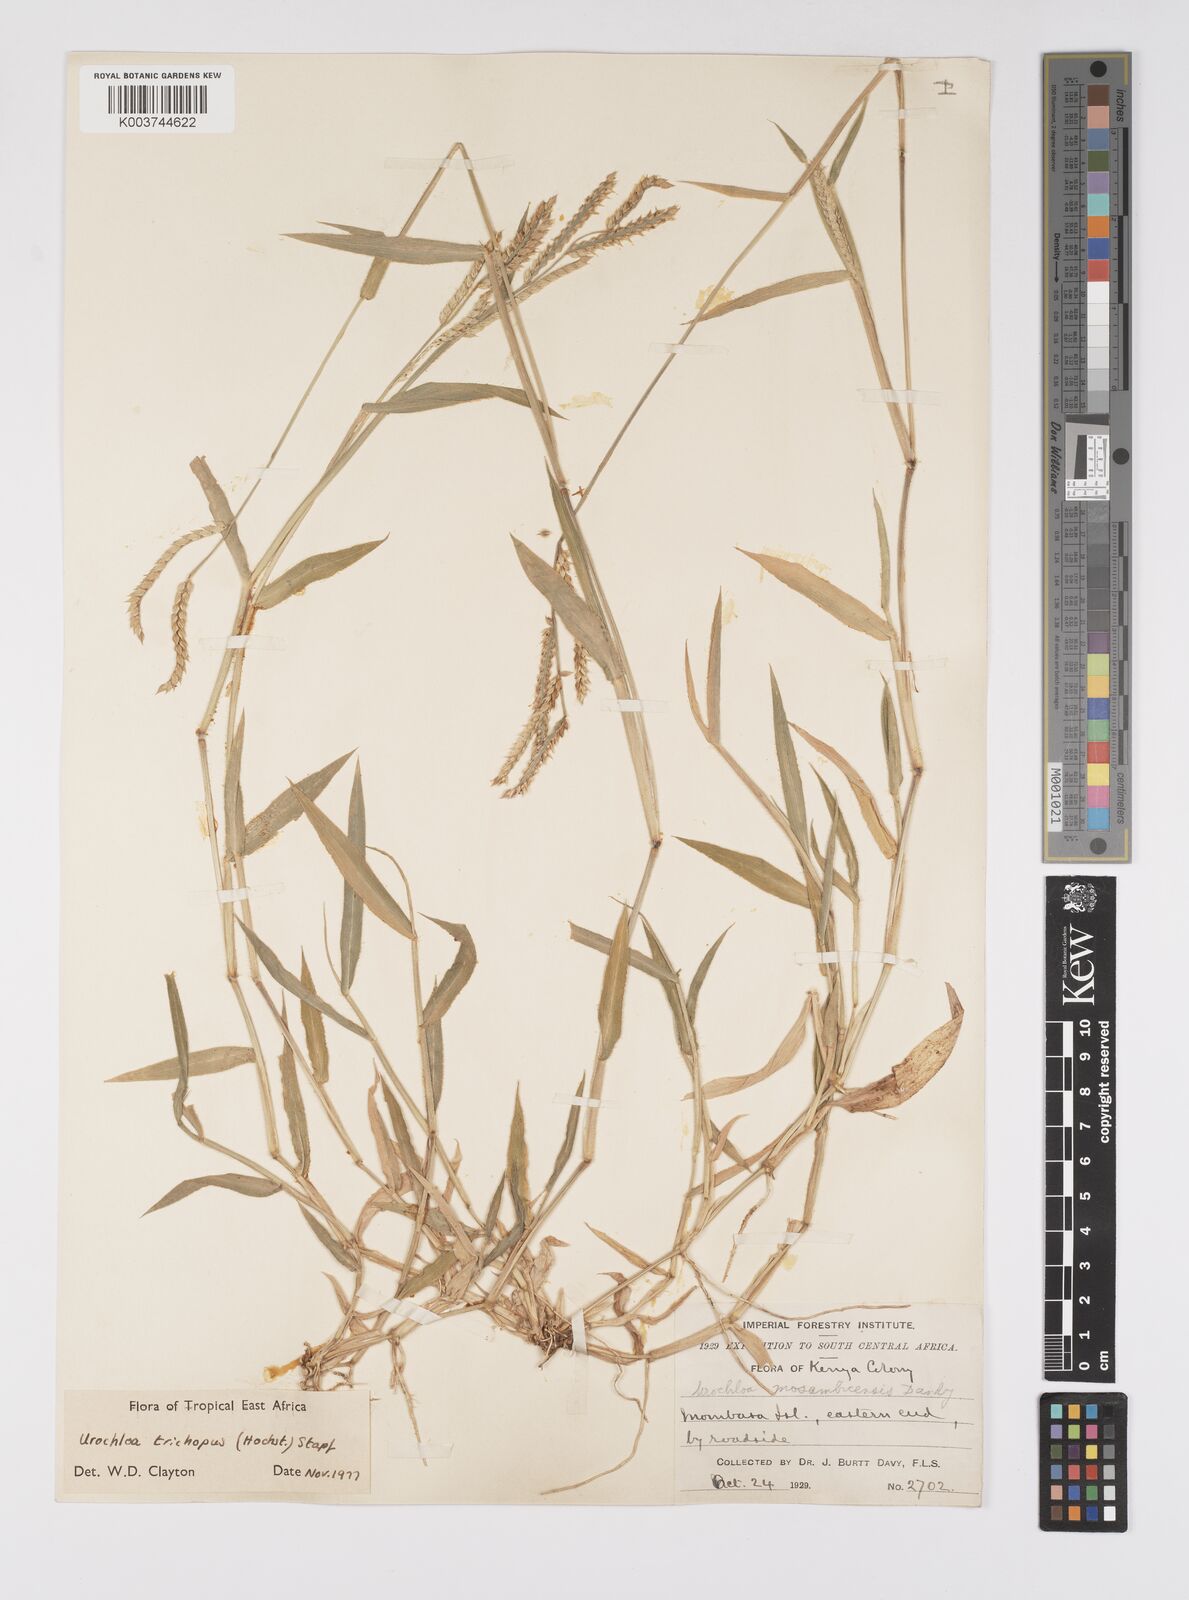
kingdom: Plantae
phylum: Tracheophyta
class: Liliopsida
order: Poales
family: Poaceae
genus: Urochloa
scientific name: Urochloa trichopus
